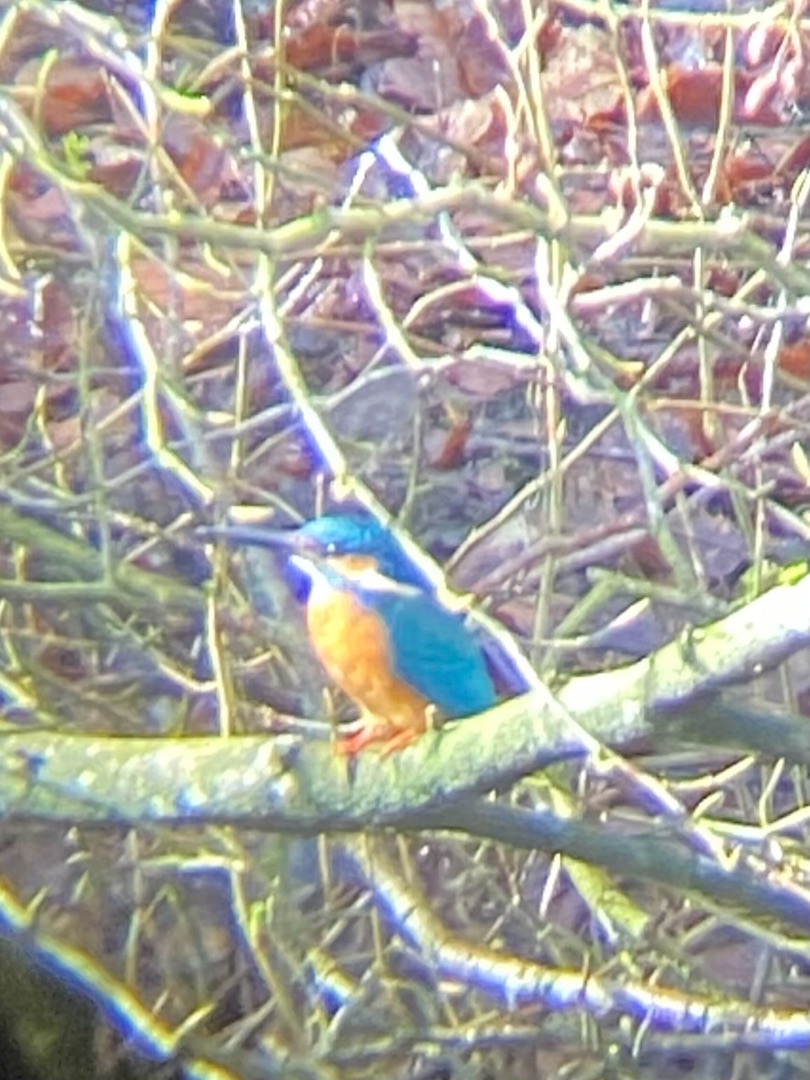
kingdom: Animalia
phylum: Chordata
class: Aves
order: Coraciiformes
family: Alcedinidae
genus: Alcedo
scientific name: Alcedo atthis
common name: Isfugl
